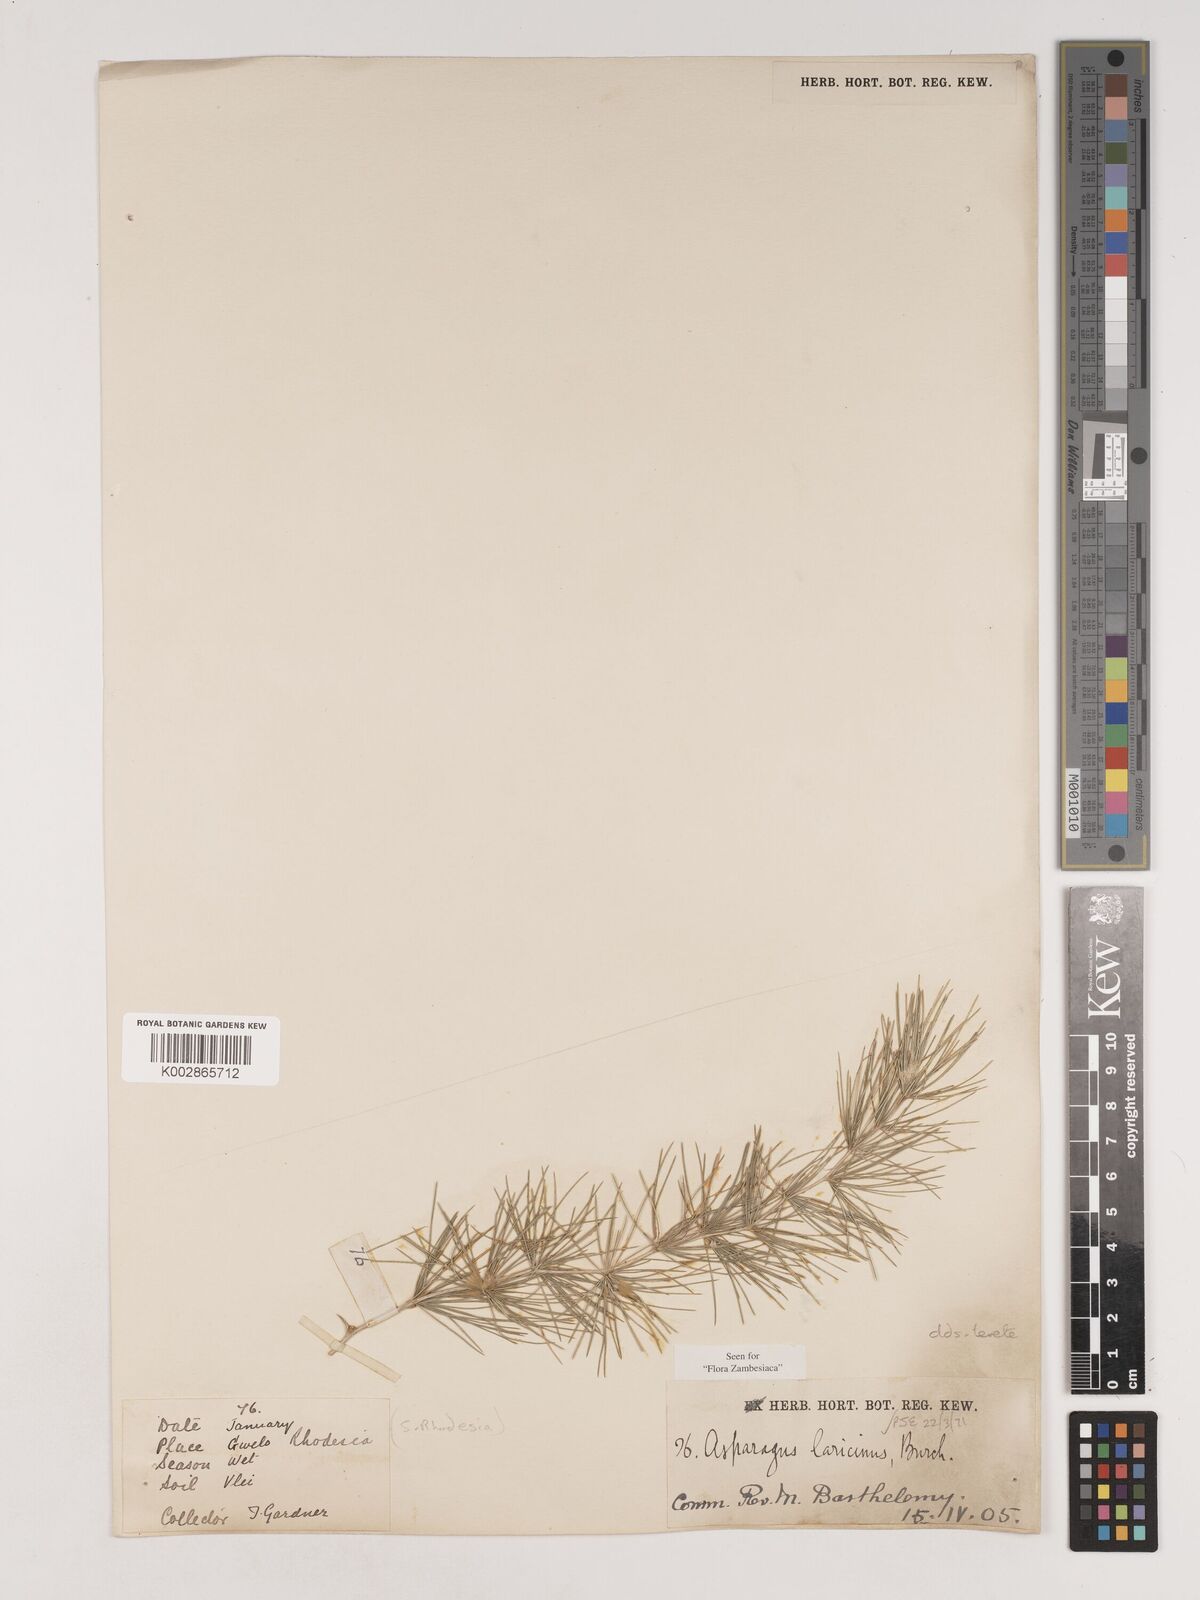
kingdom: Plantae
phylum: Tracheophyta
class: Liliopsida
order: Asparagales
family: Asparagaceae
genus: Asparagus
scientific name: Asparagus laricinus
